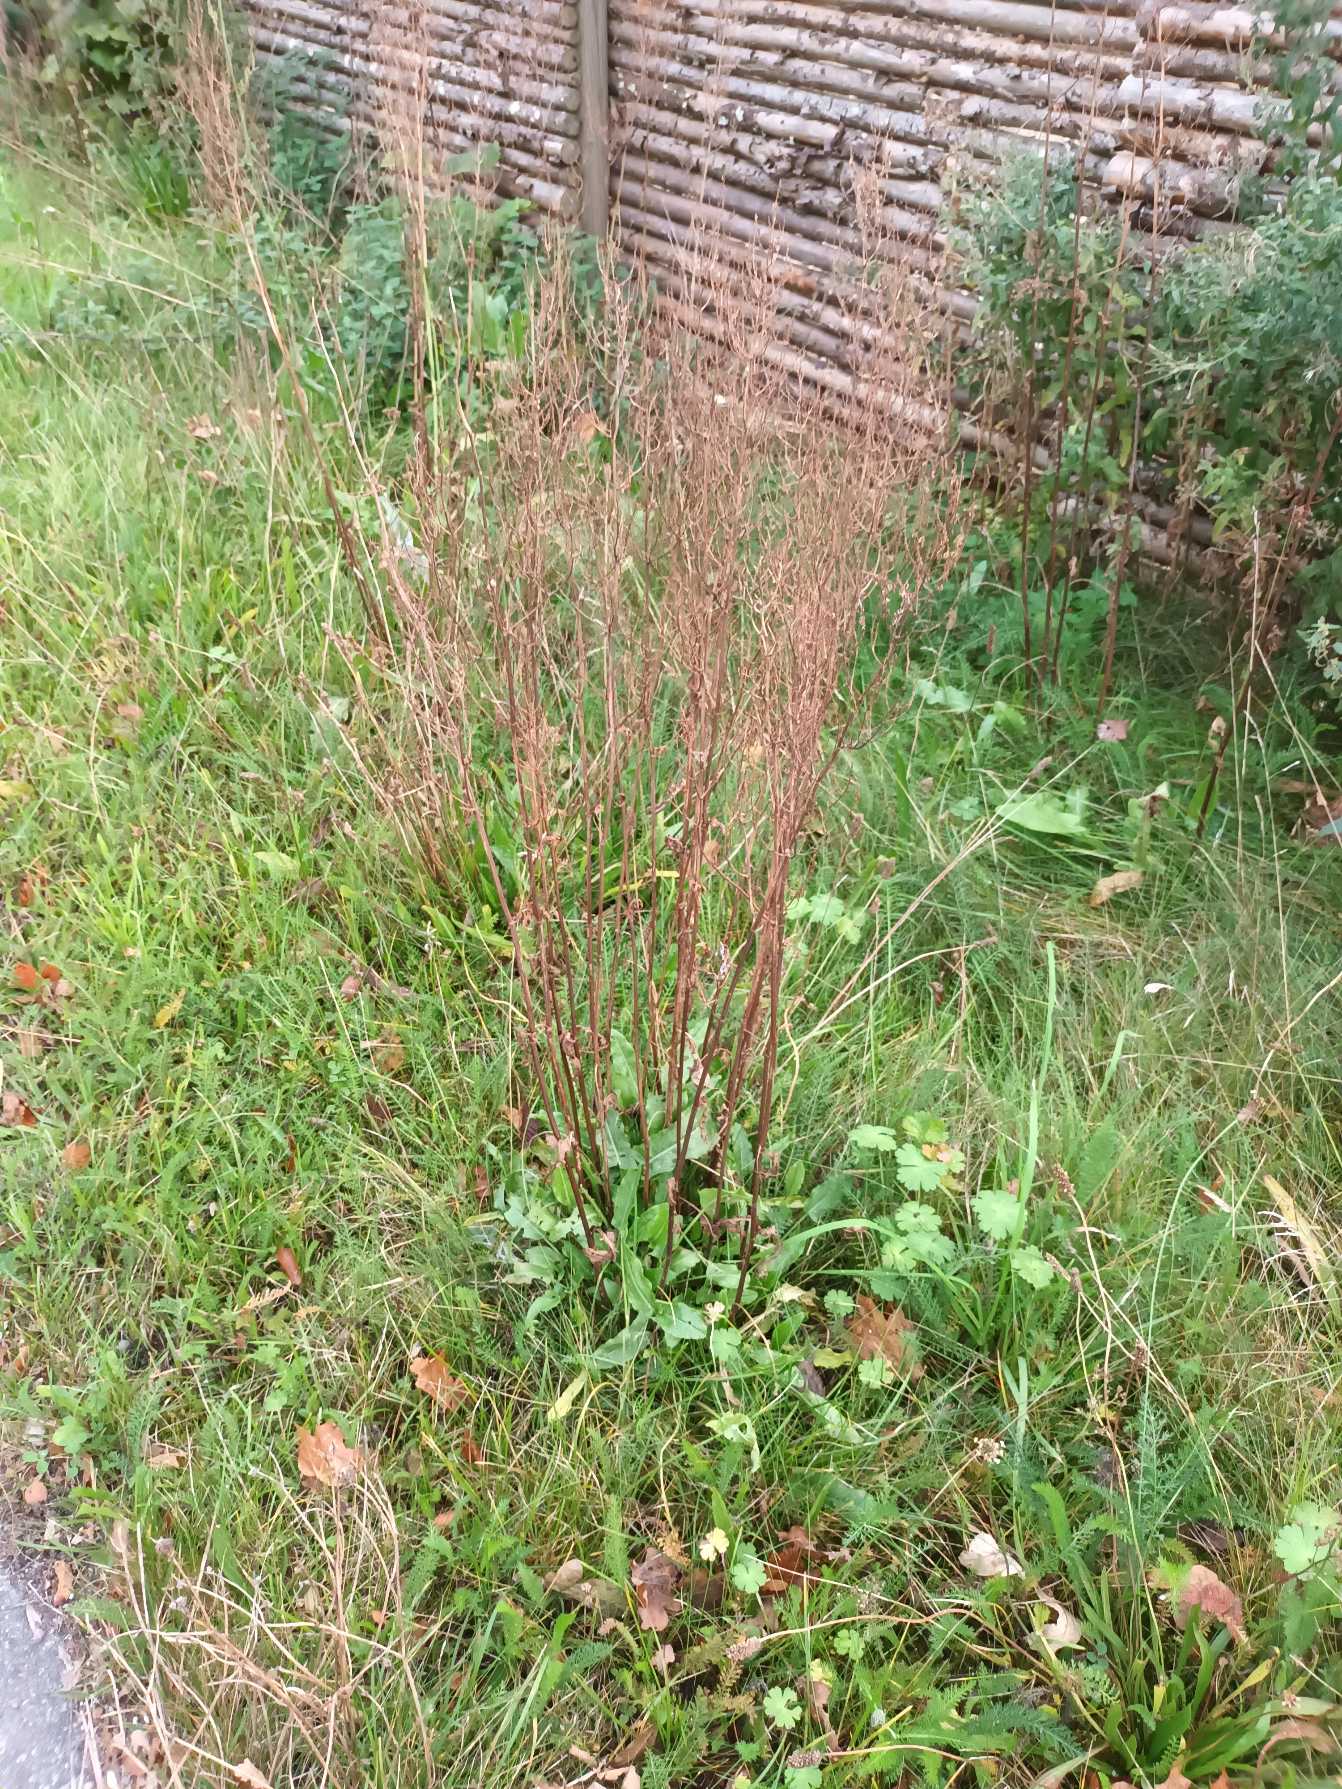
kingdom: Plantae
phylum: Tracheophyta
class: Magnoliopsida
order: Caryophyllales
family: Polygonaceae
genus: Rumex
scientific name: Rumex thyrsiflorus
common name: Dusk-syre
